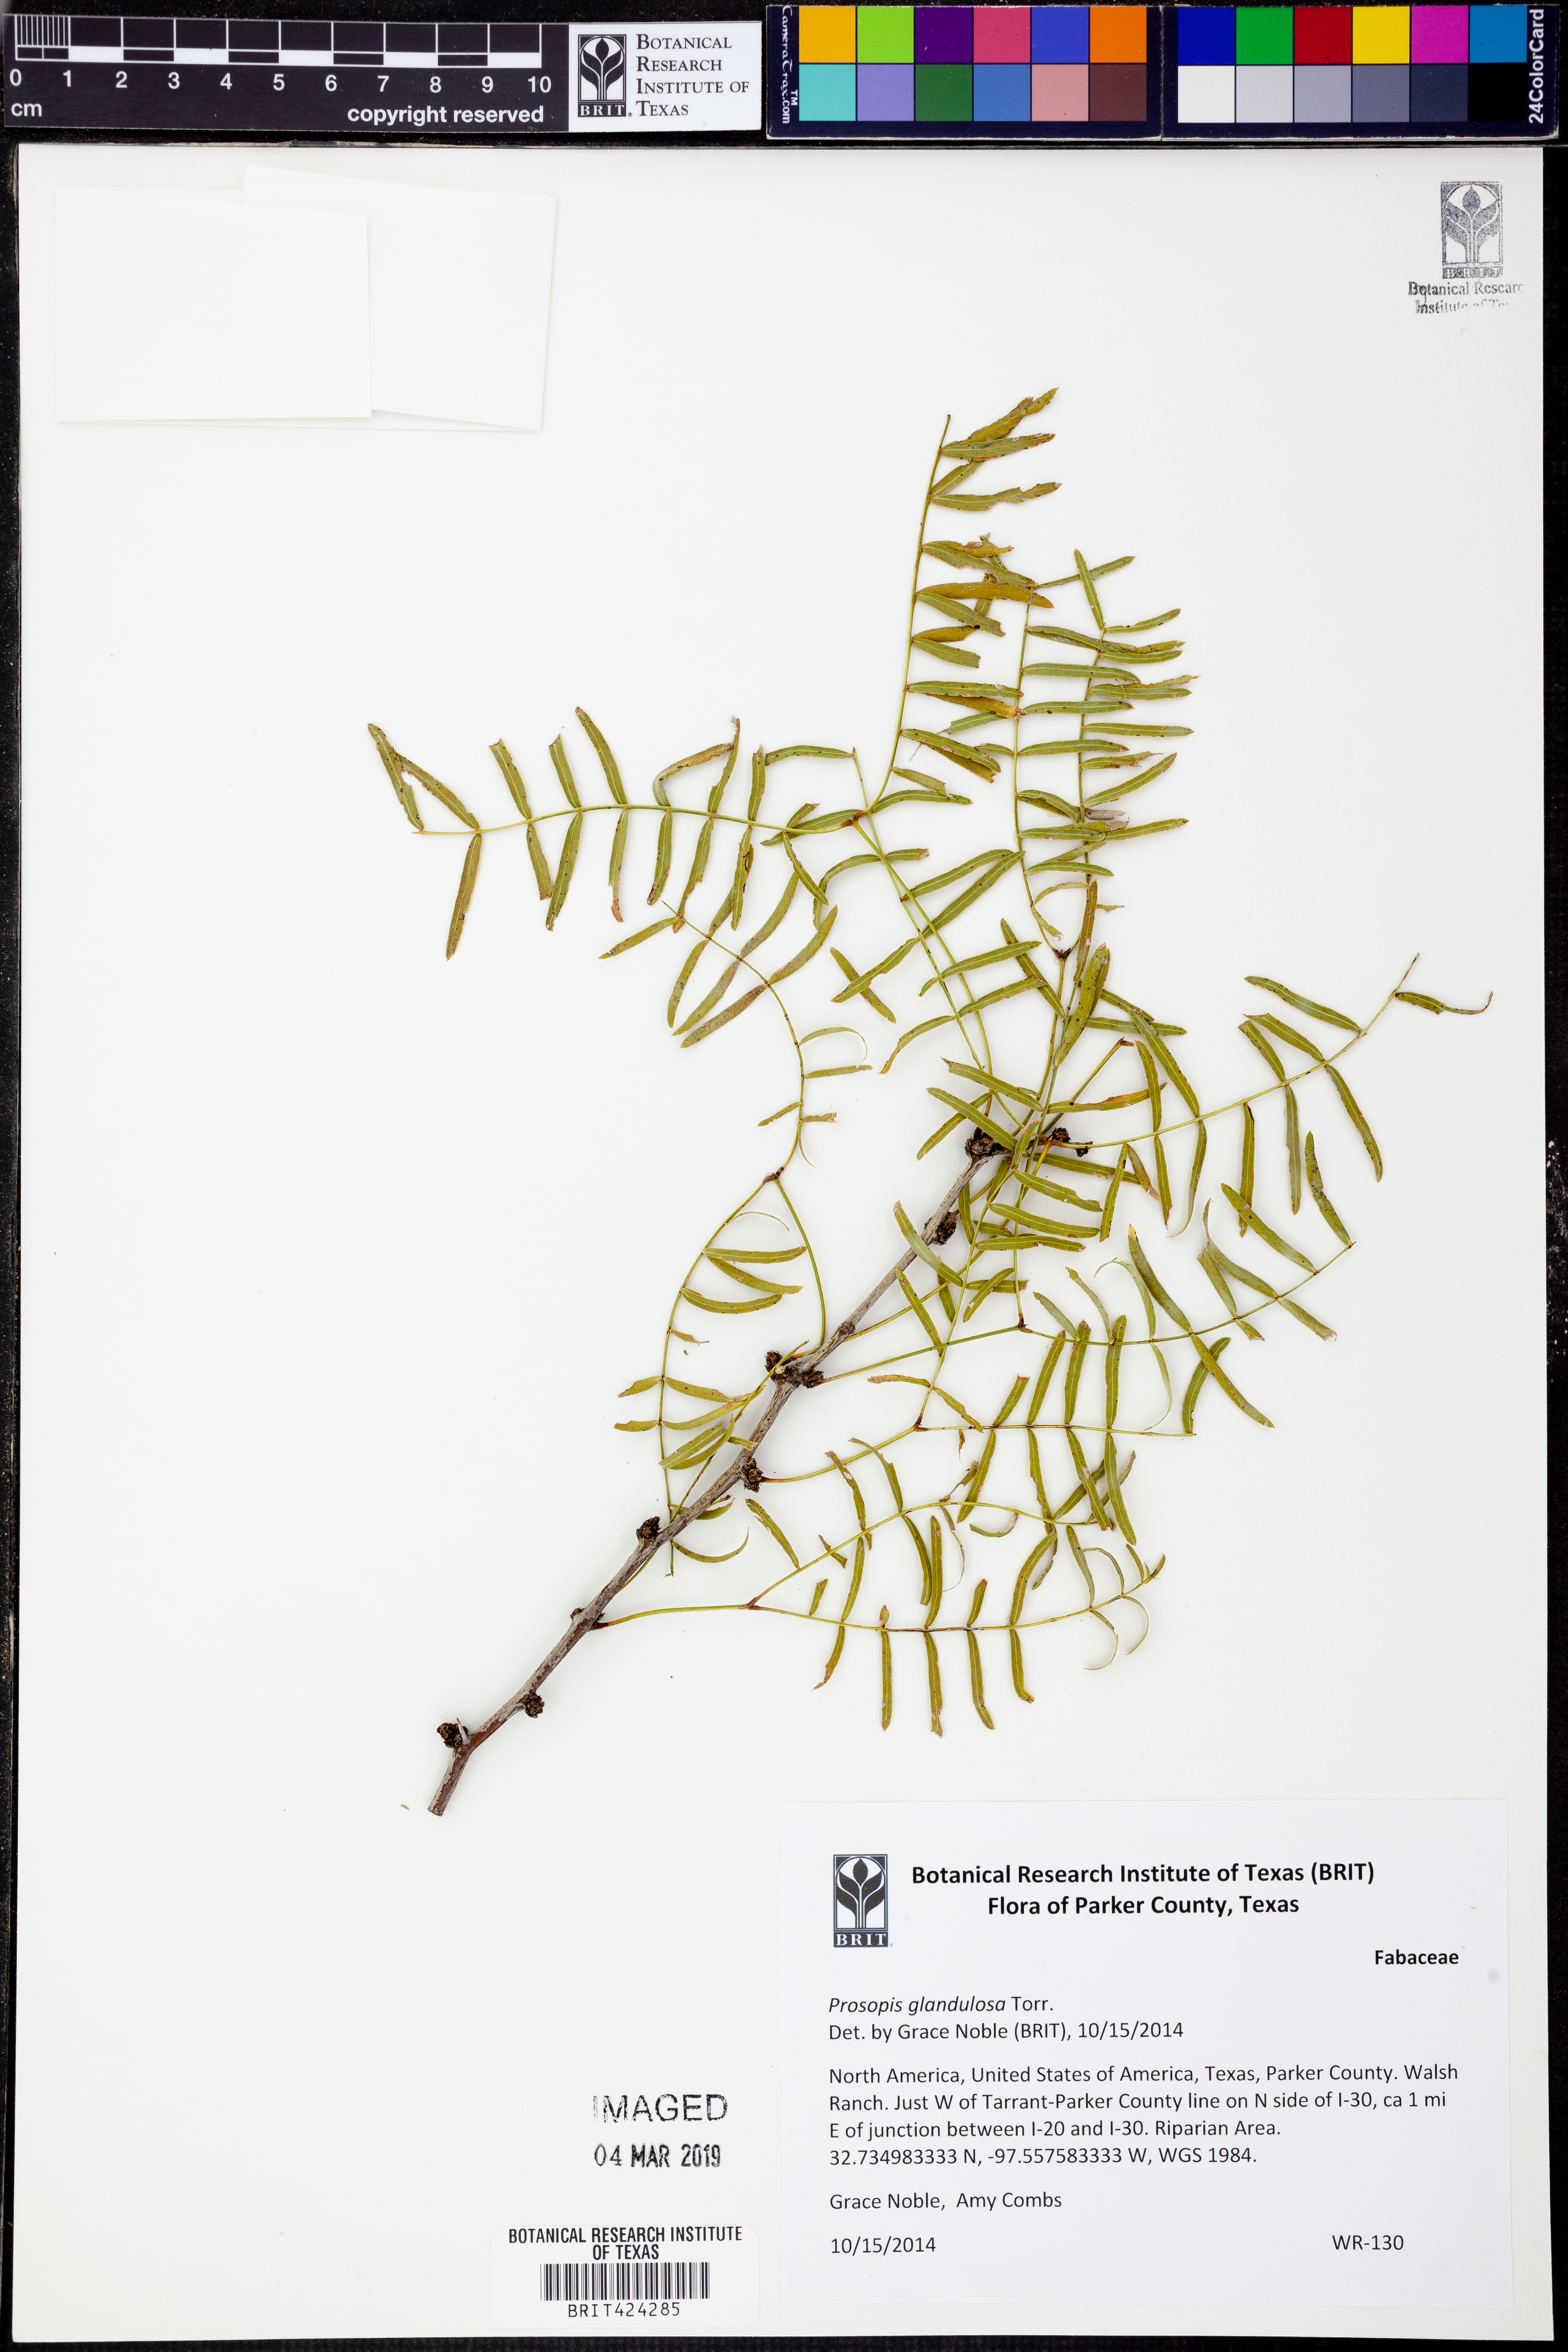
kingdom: Plantae
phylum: Tracheophyta
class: Magnoliopsida
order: Fabales
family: Fabaceae
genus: Prosopis
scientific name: Prosopis glandulosa
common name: Honey mesquite
